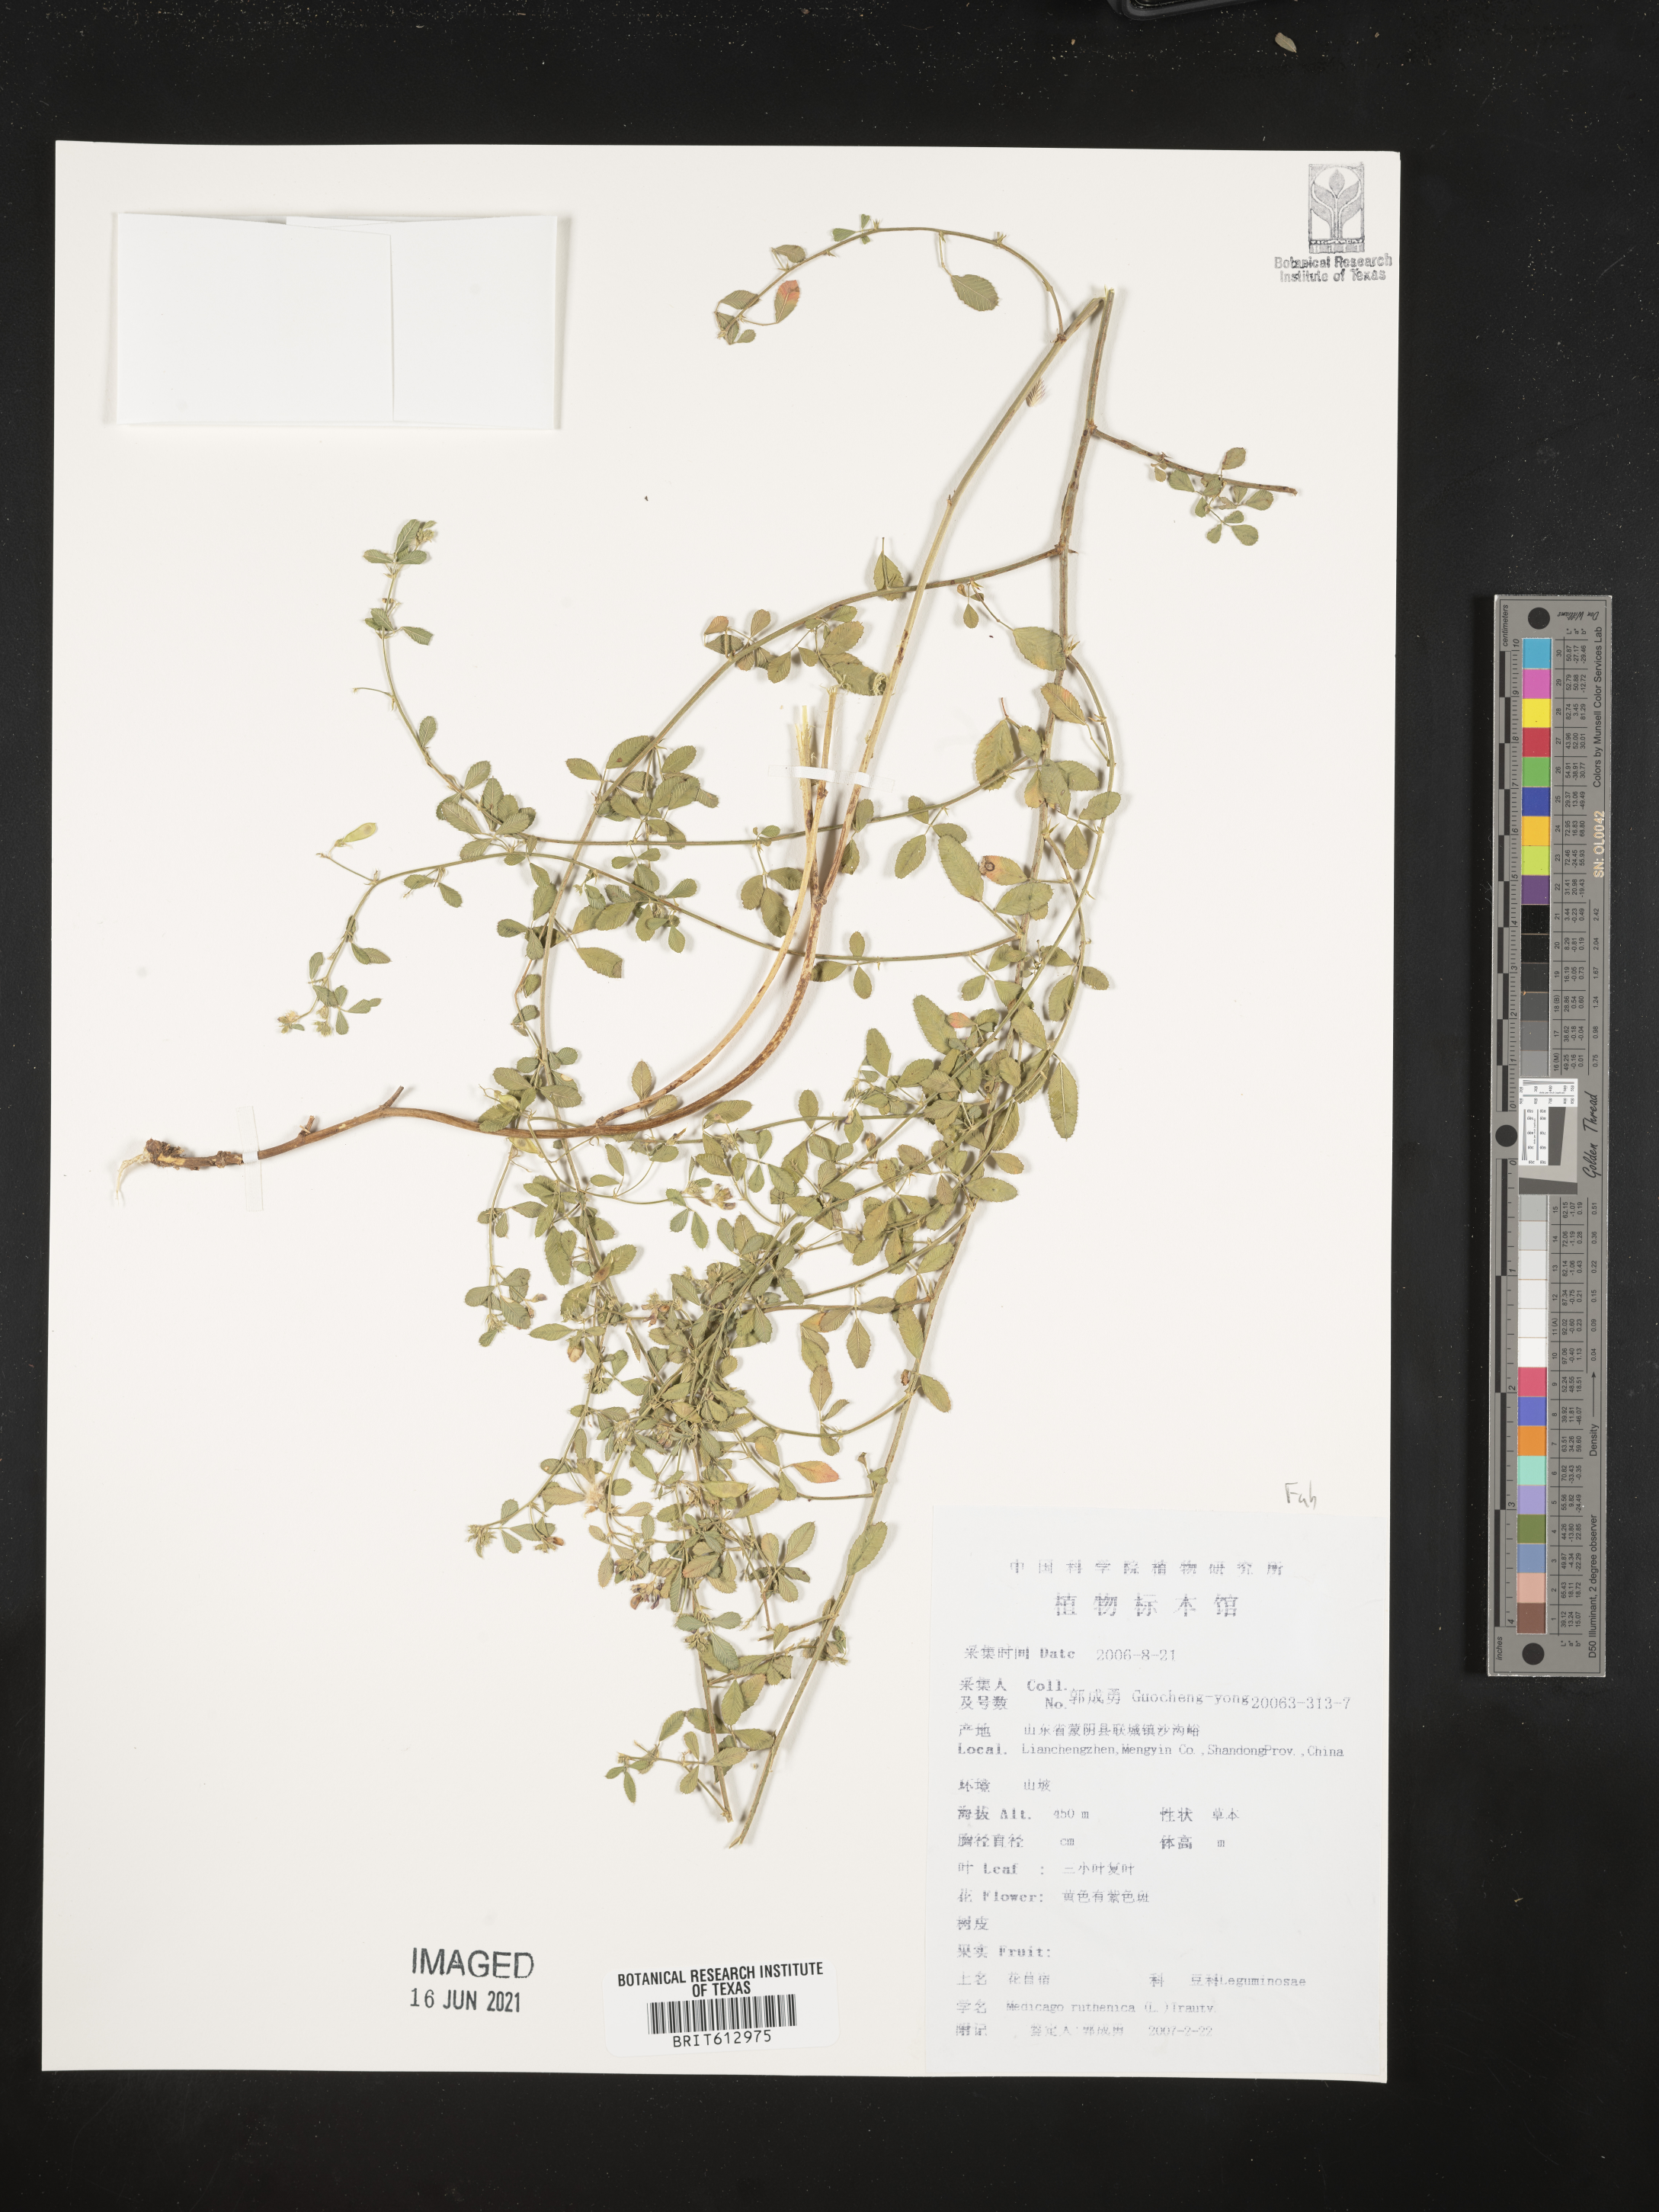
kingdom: Plantae
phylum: Tracheophyta
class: Magnoliopsida
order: Fabales
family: Fabaceae
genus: Medicago
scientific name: Medicago ruthenica
